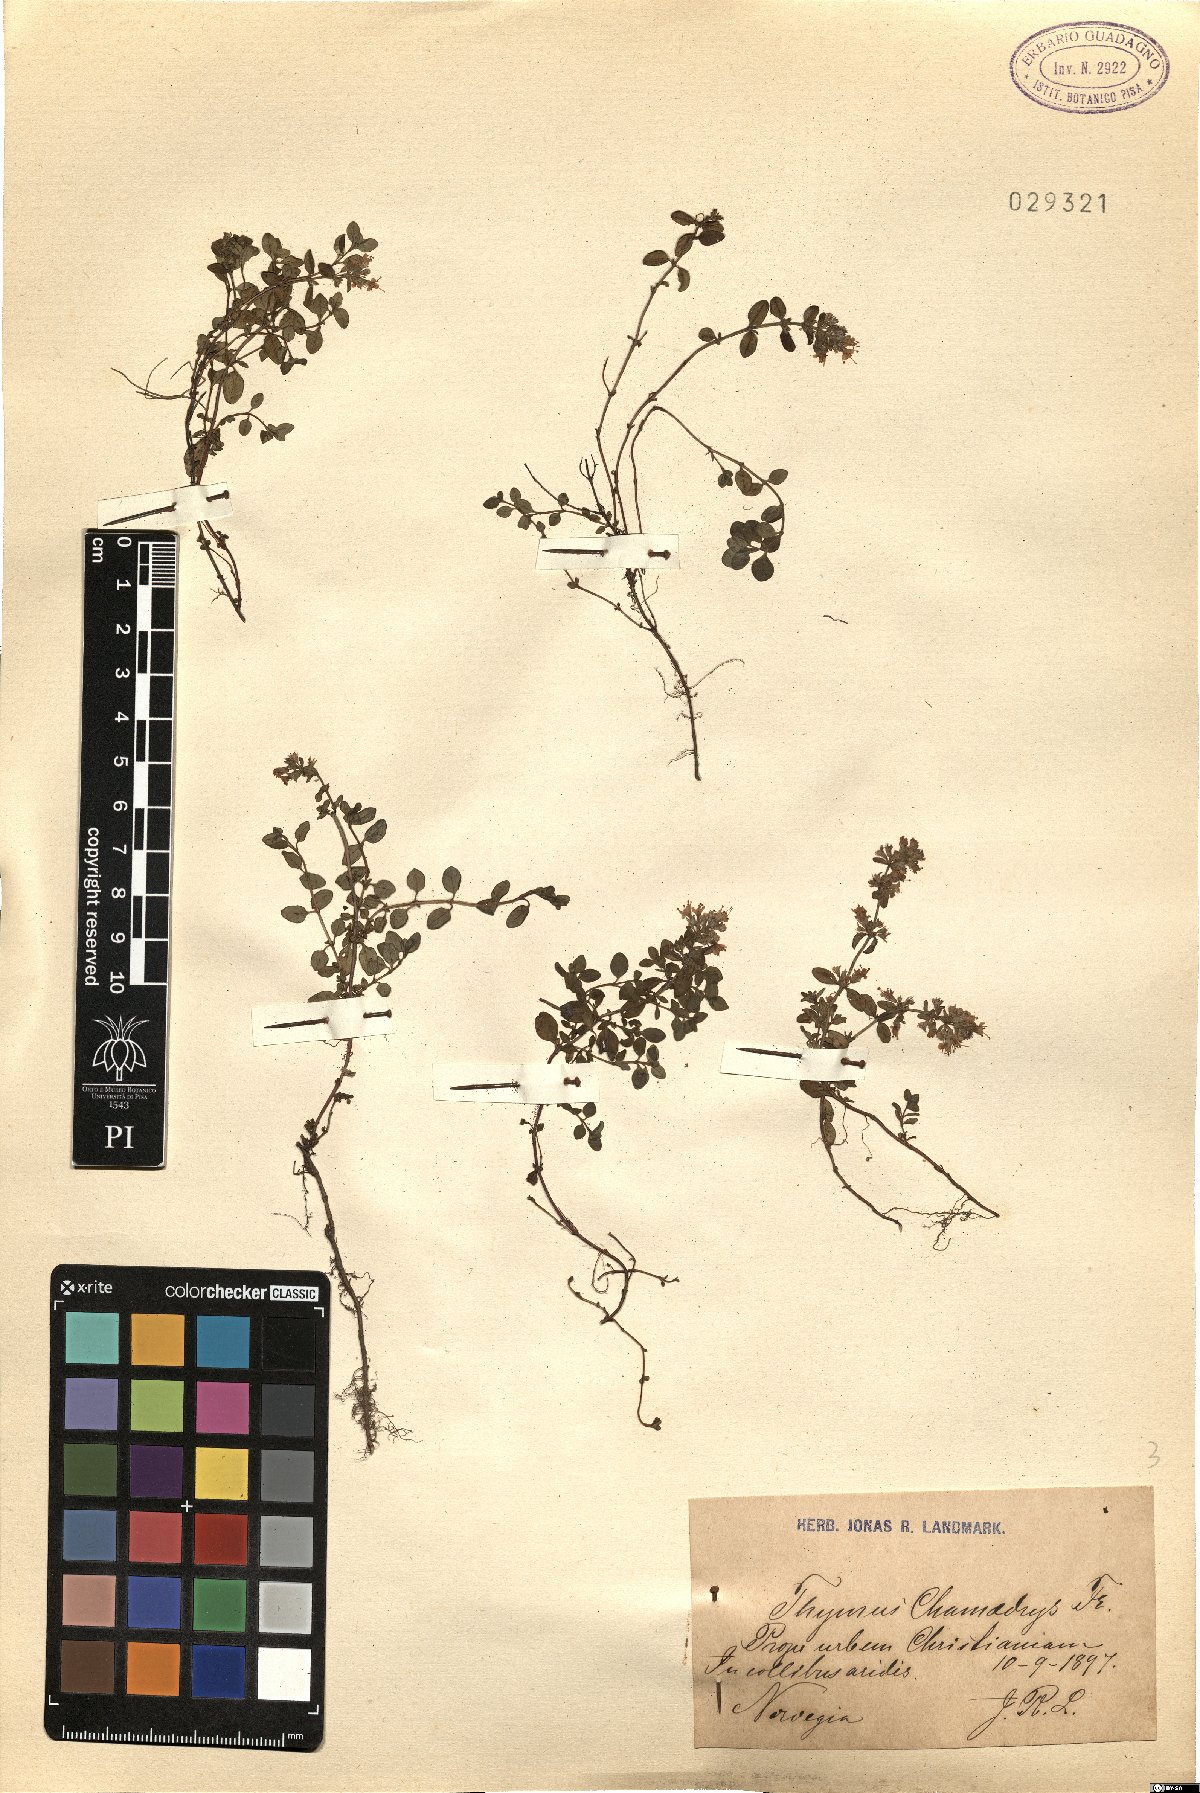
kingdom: Plantae
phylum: Tracheophyta
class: Magnoliopsida
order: Lamiales
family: Lamiaceae
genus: Thymus
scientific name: Thymus pulegioides
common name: Large thyme
